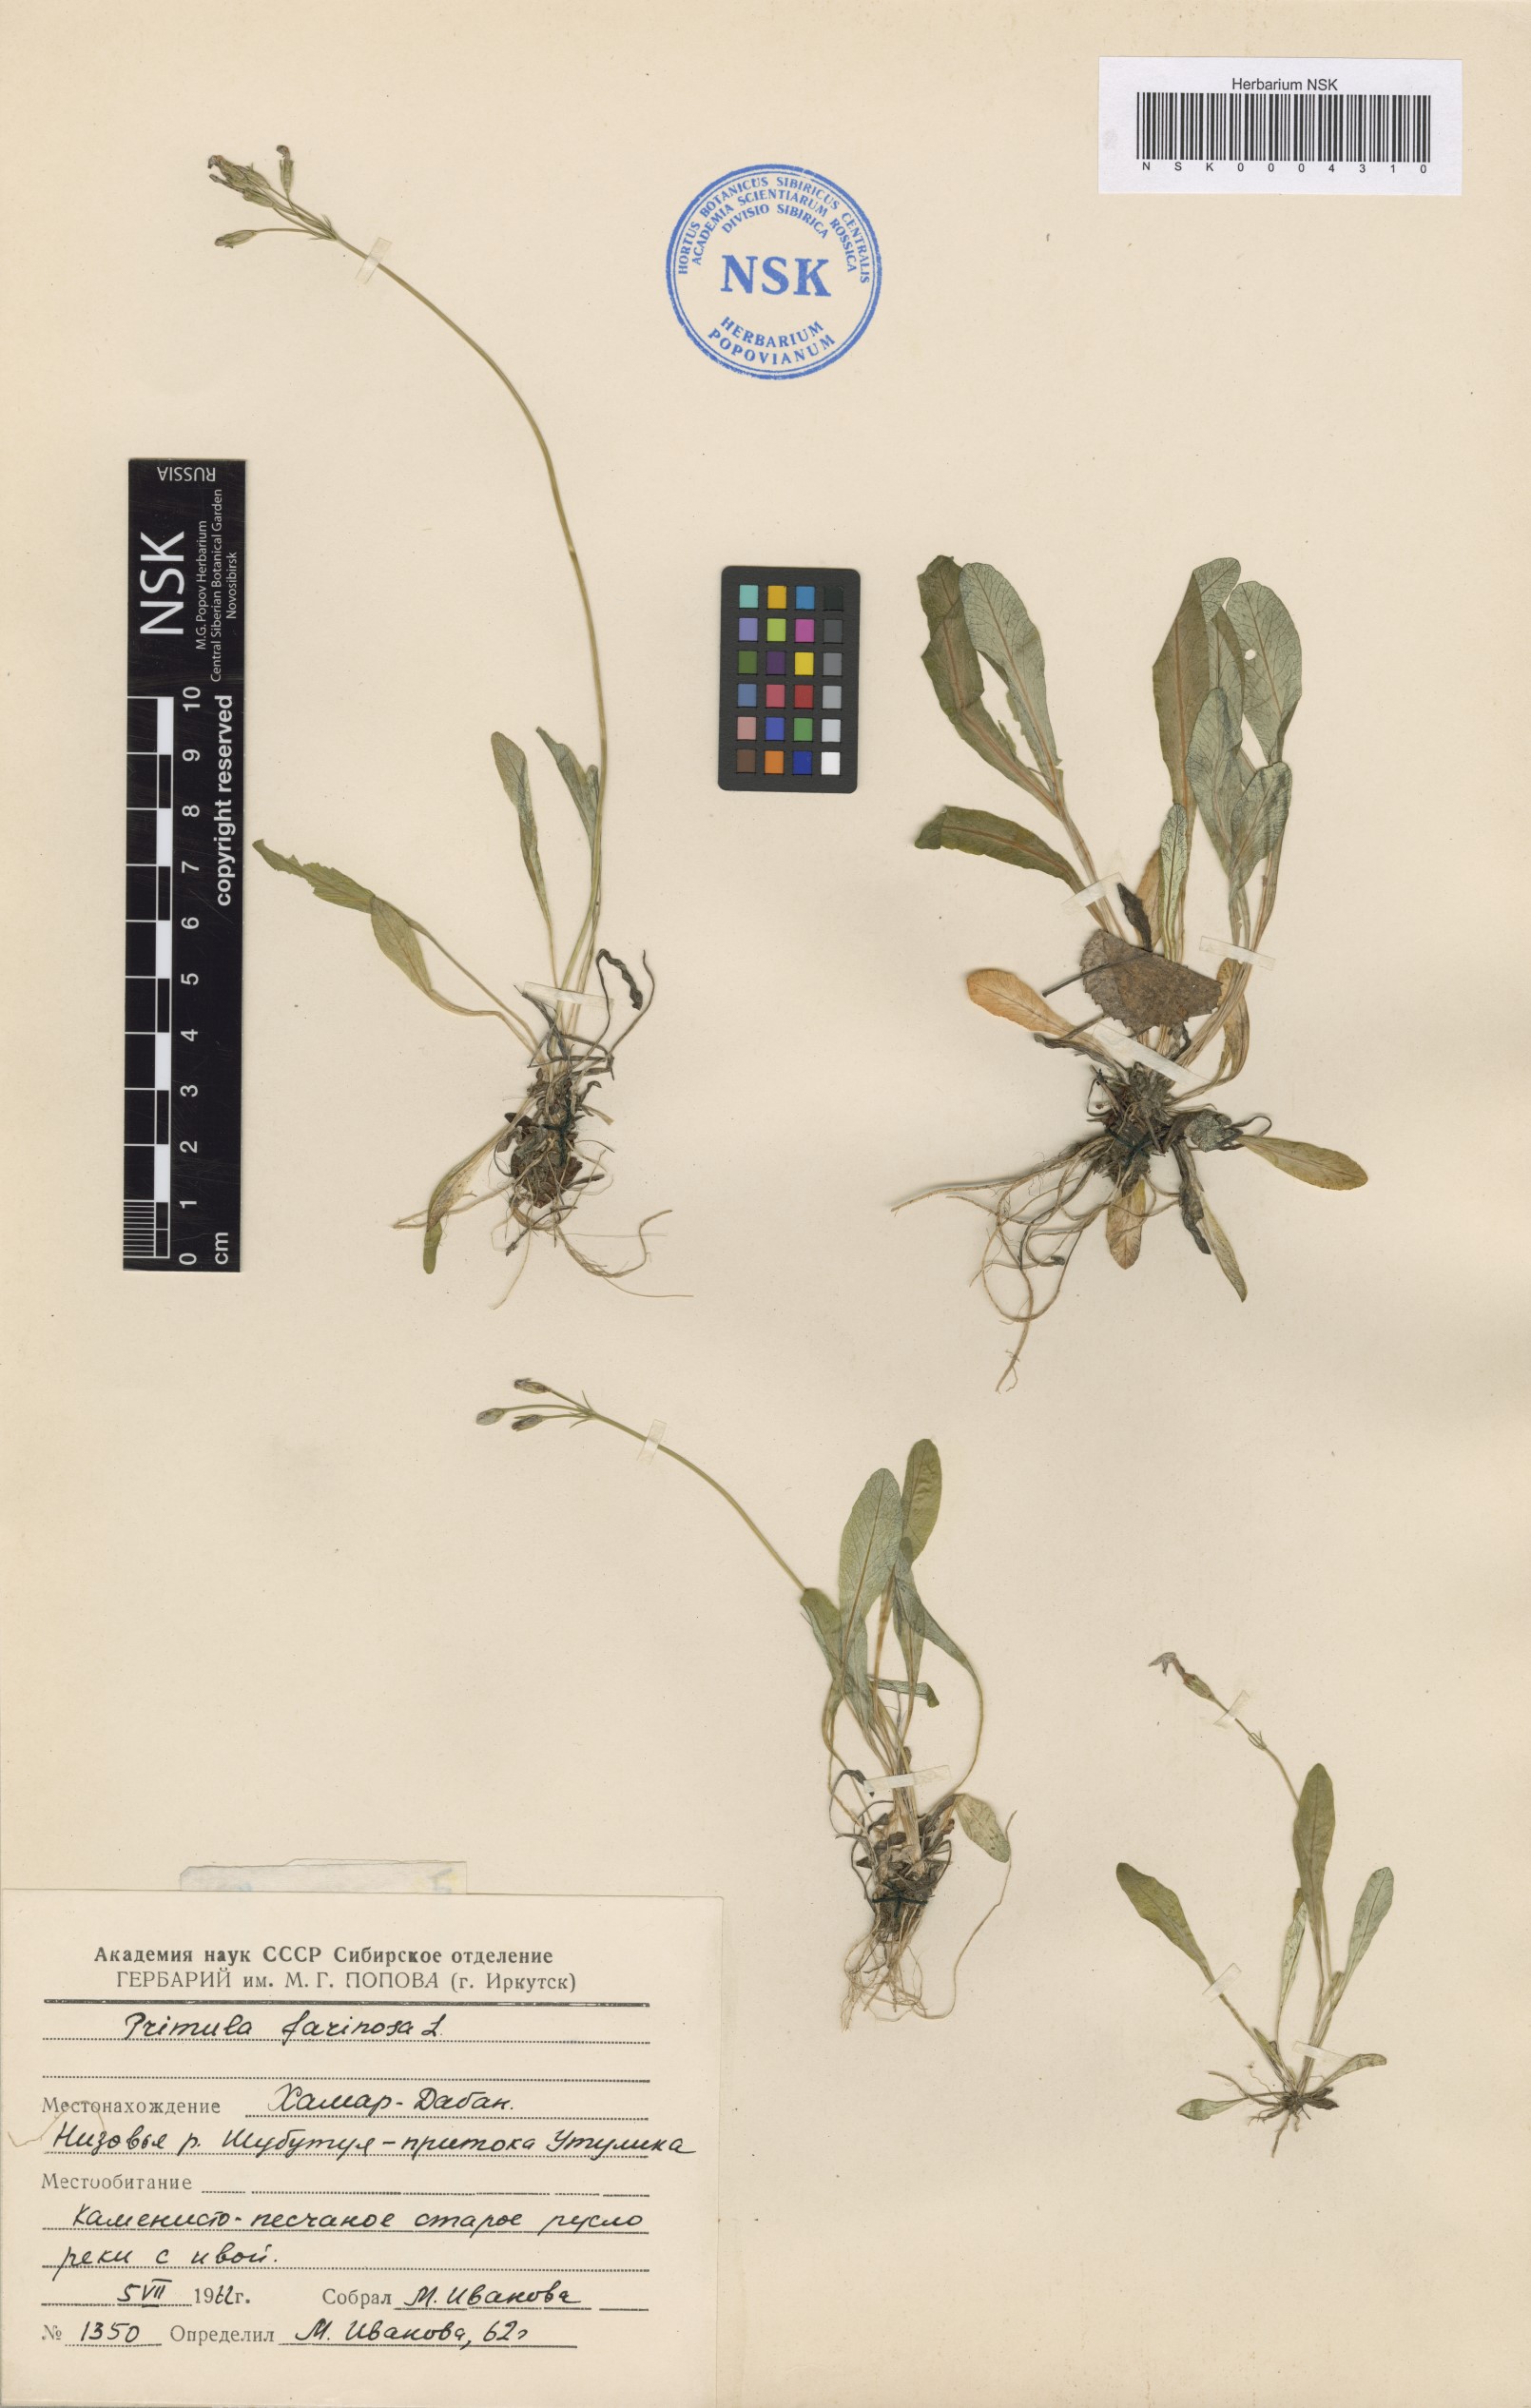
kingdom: Plantae
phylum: Tracheophyta
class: Magnoliopsida
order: Ericales
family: Primulaceae
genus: Primula
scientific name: Primula farinosa
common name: Bird's-eye primrose
